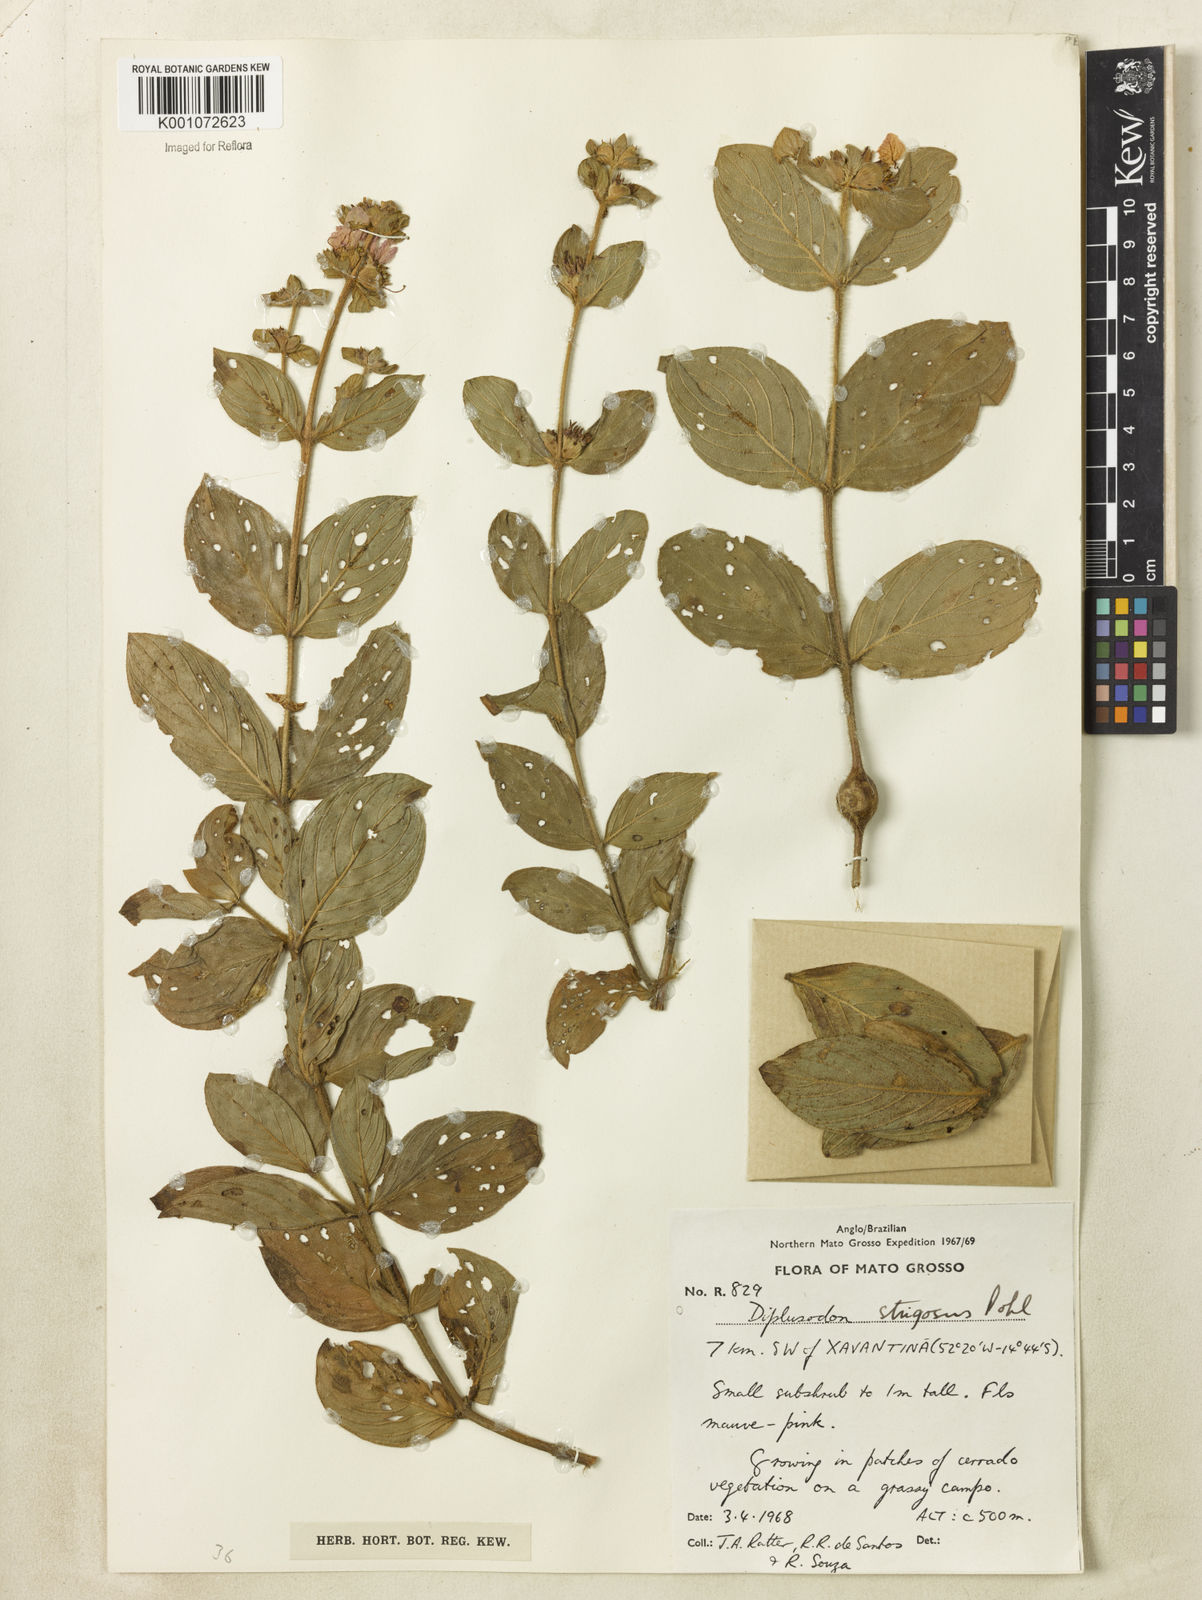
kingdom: Plantae
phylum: Tracheophyta
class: Magnoliopsida
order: Myrtales
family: Lythraceae
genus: Diplusodon
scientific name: Diplusodon strigosus
